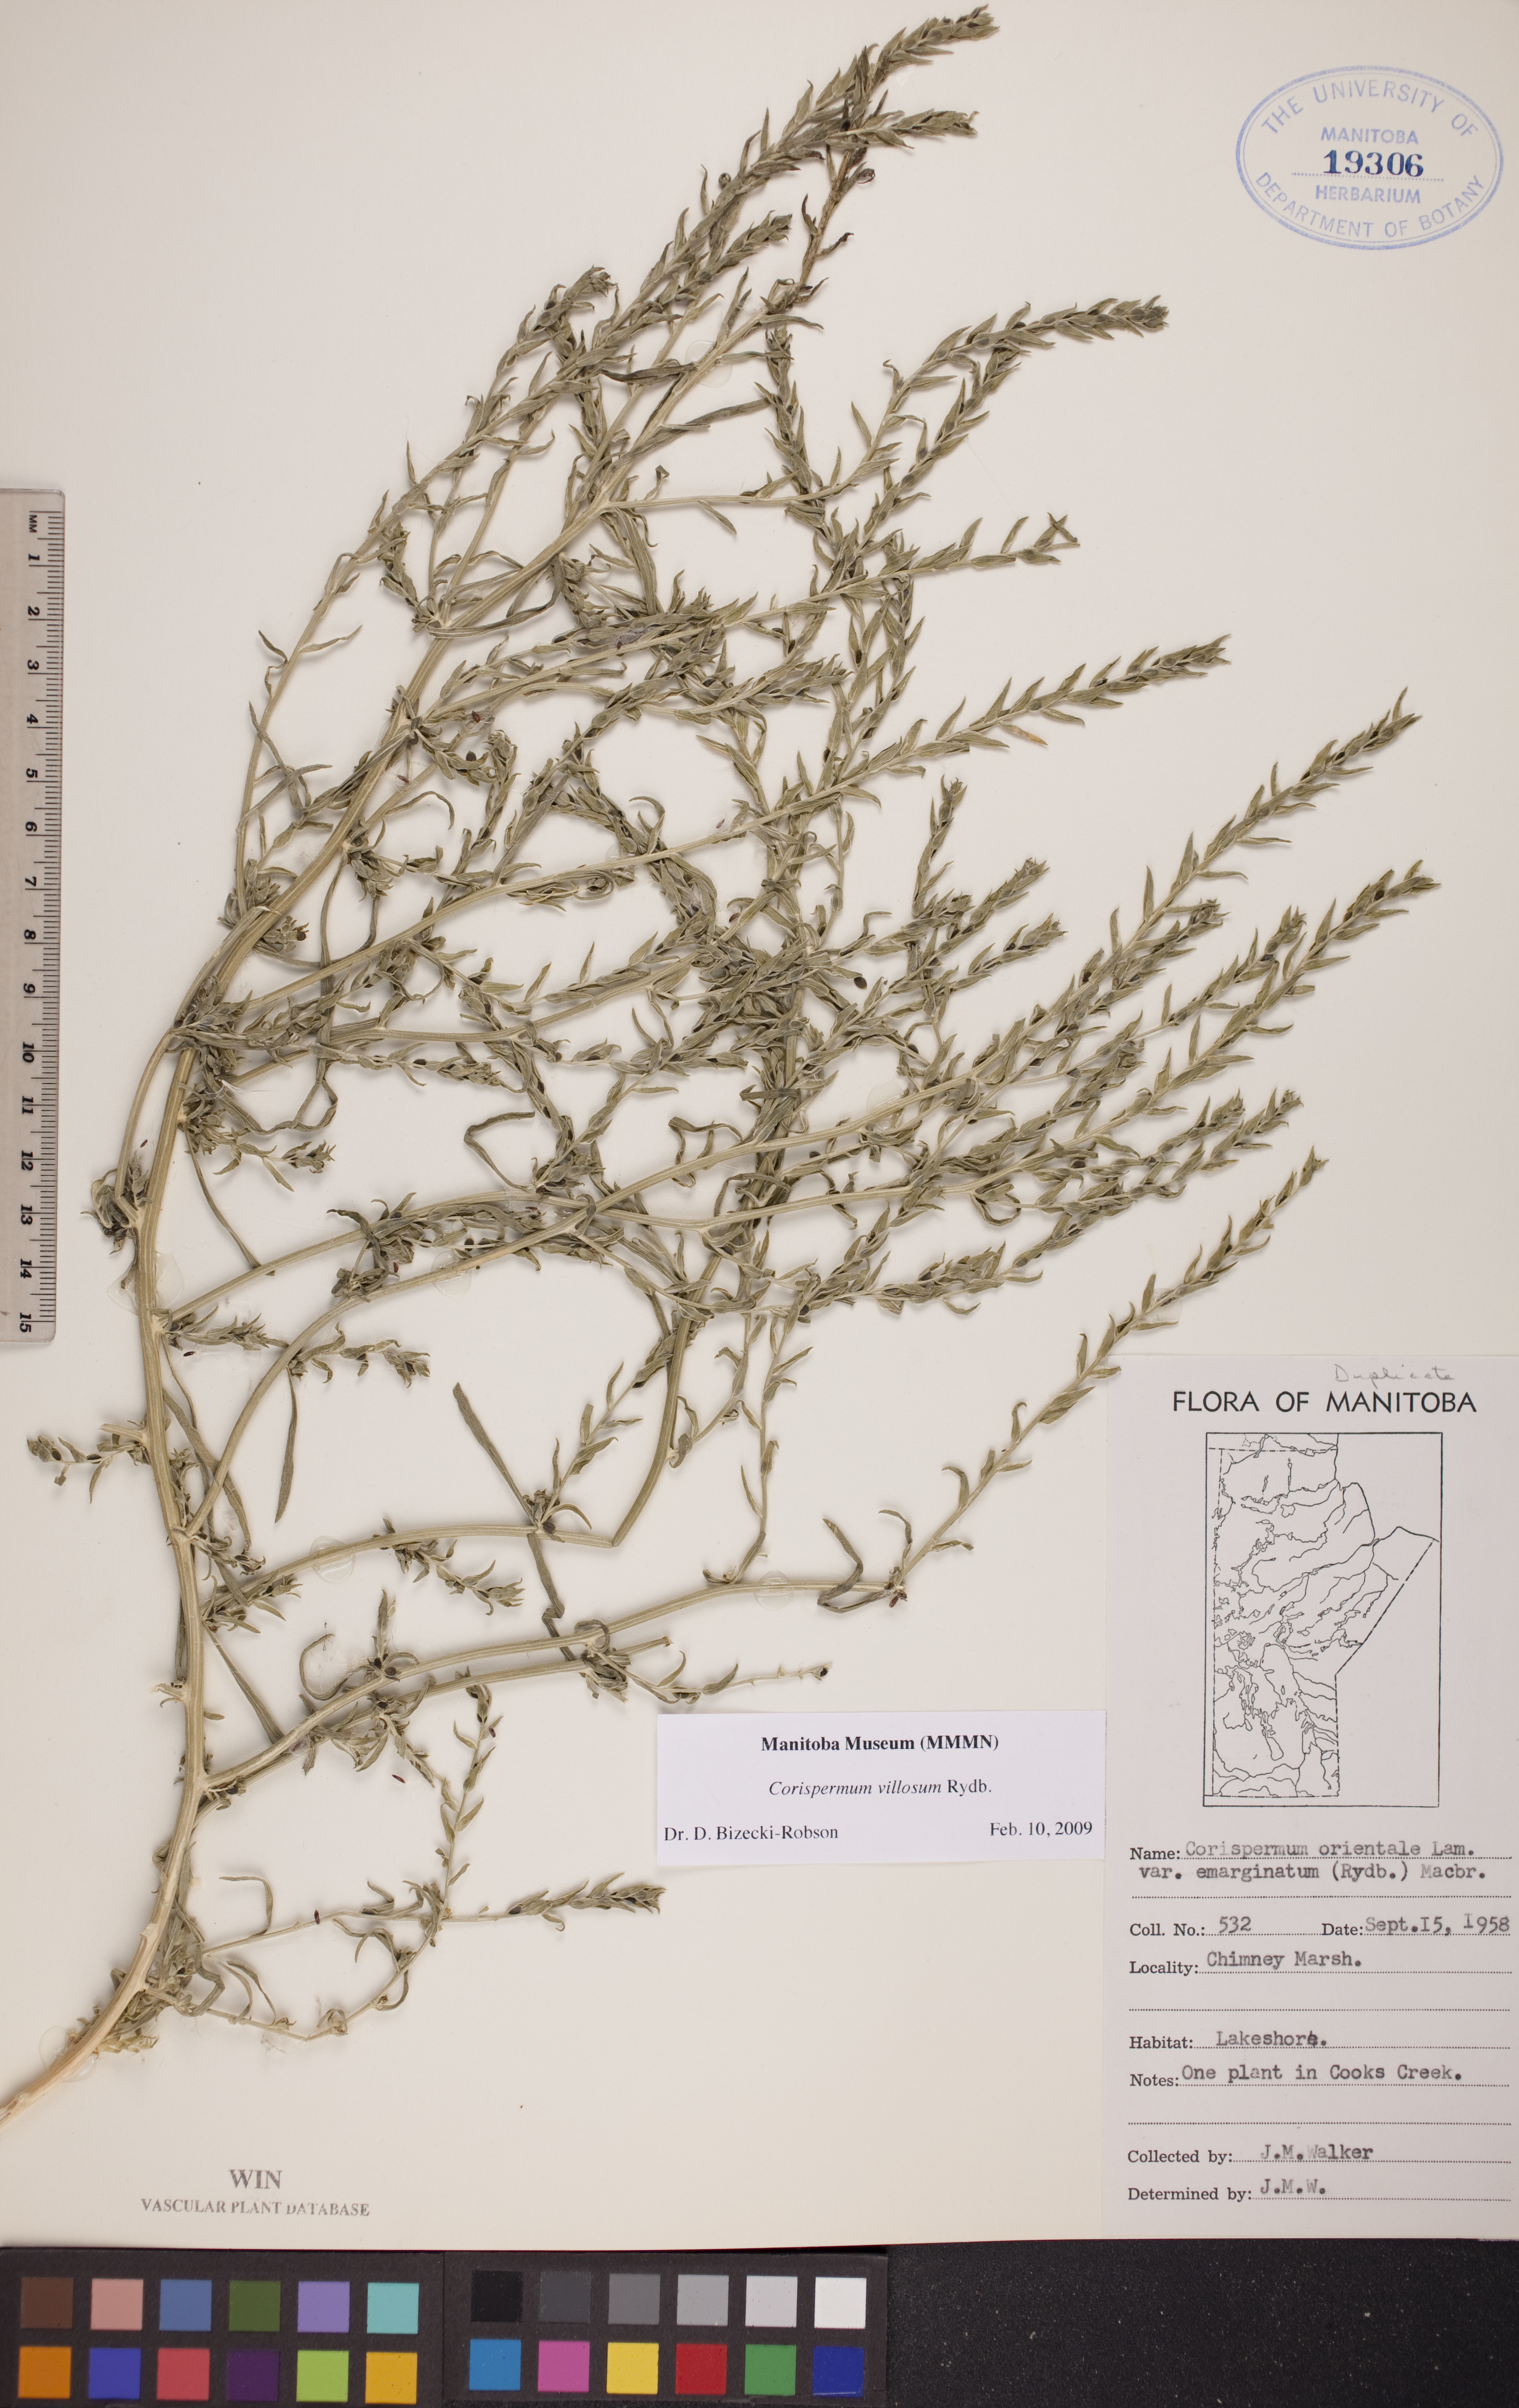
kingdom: Plantae
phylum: Tracheophyta
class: Magnoliopsida
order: Caryophyllales
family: Amaranthaceae
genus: Corispermum
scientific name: Corispermum villosum
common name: Hairy bugseed
